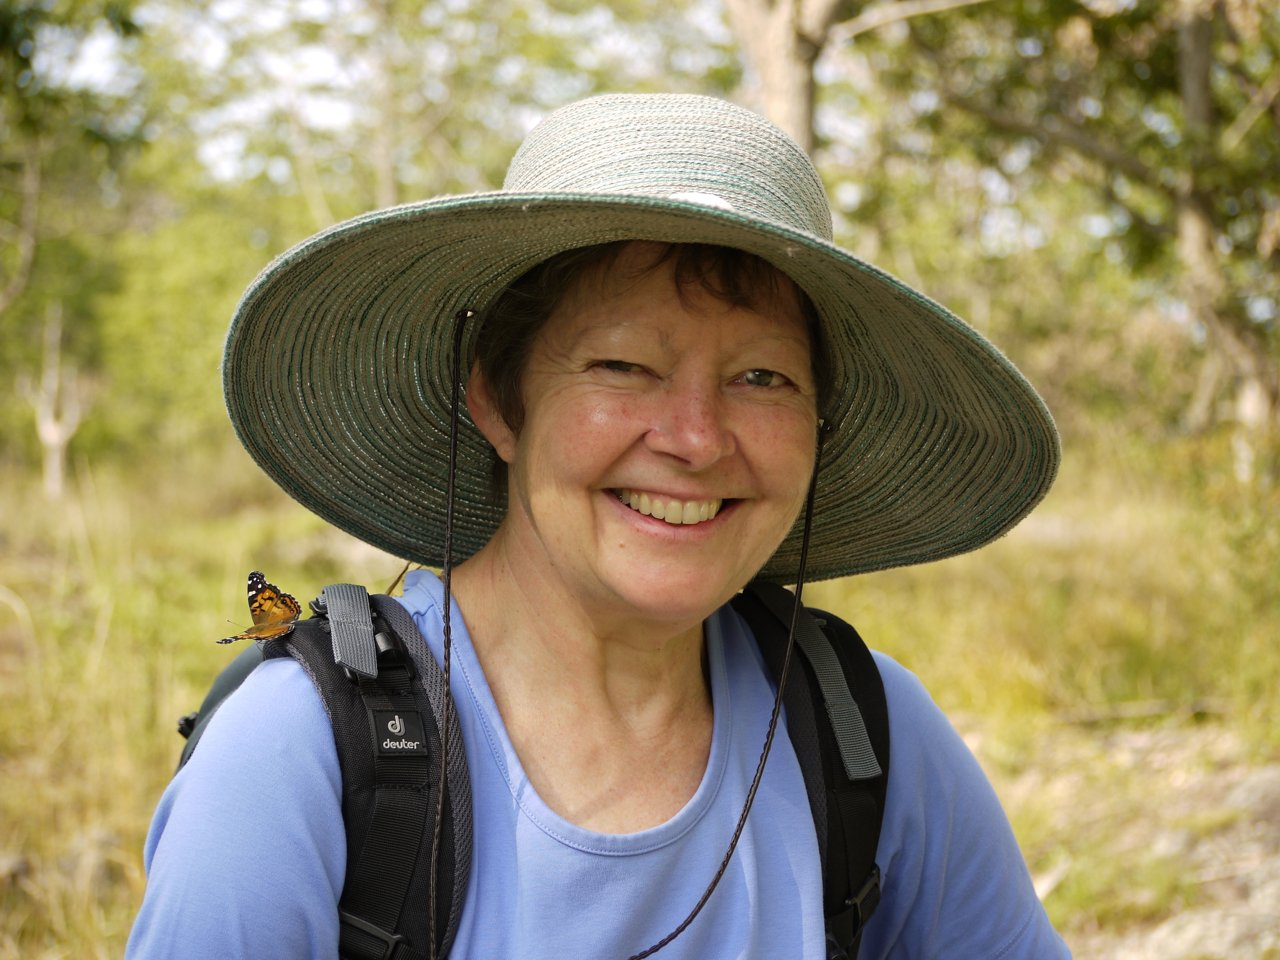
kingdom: Animalia
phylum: Arthropoda
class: Insecta
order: Lepidoptera
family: Nymphalidae
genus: Vanessa
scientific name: Vanessa virginiensis
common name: American Lady
